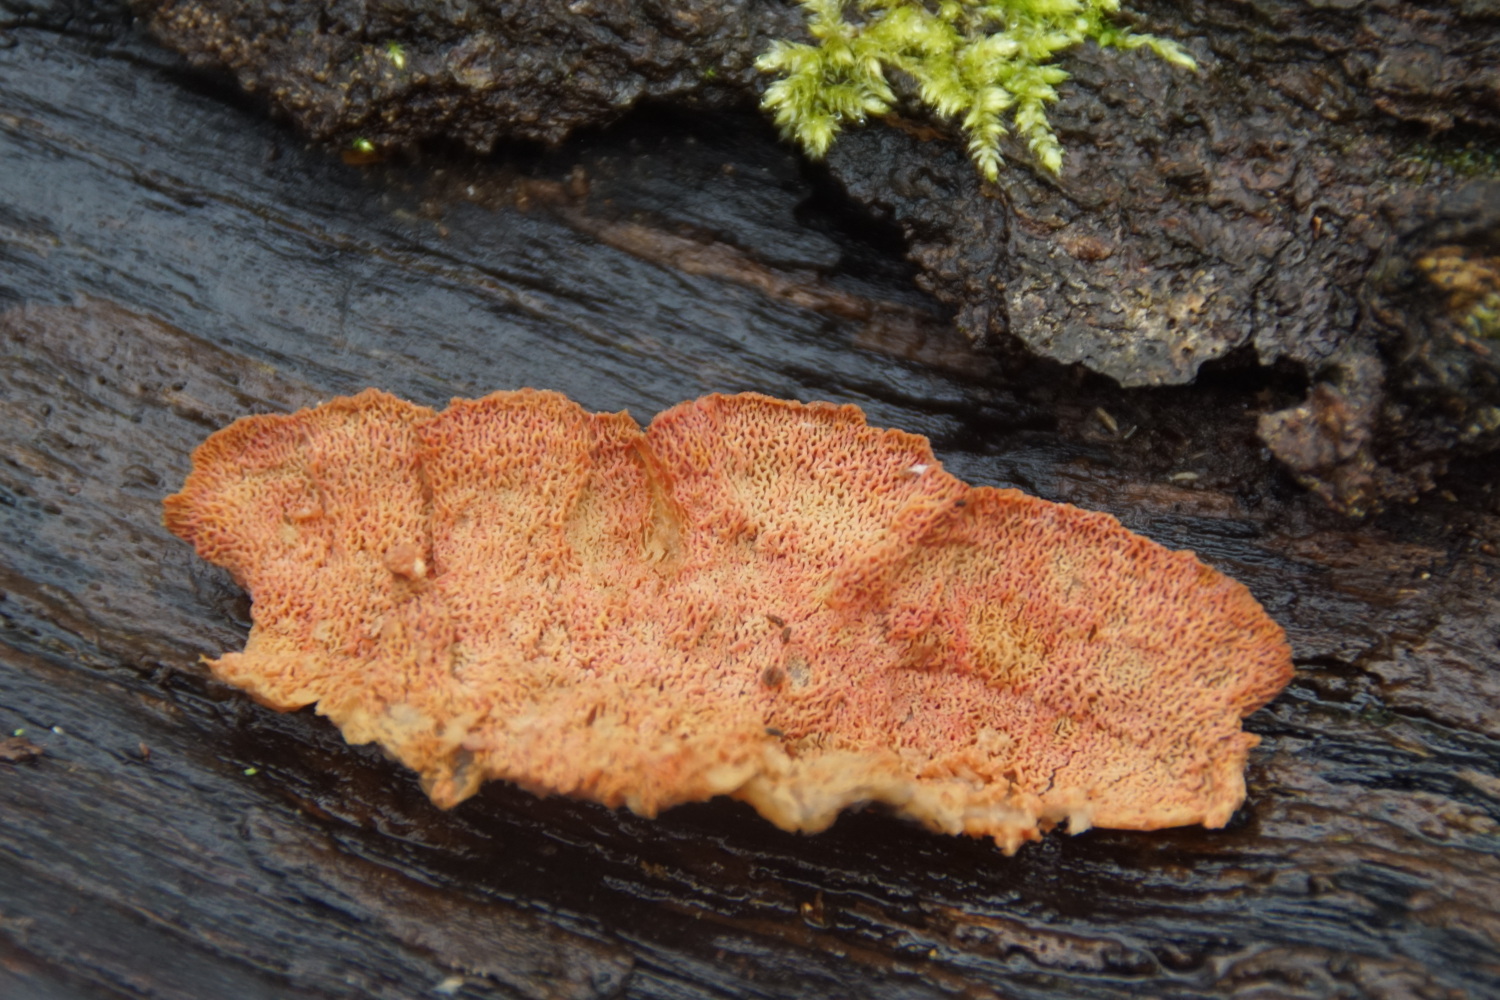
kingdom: Fungi
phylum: Basidiomycota
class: Agaricomycetes
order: Polyporales
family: Meruliaceae
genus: Phlebia
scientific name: Phlebia tremellosa
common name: bævrende åresvamp
